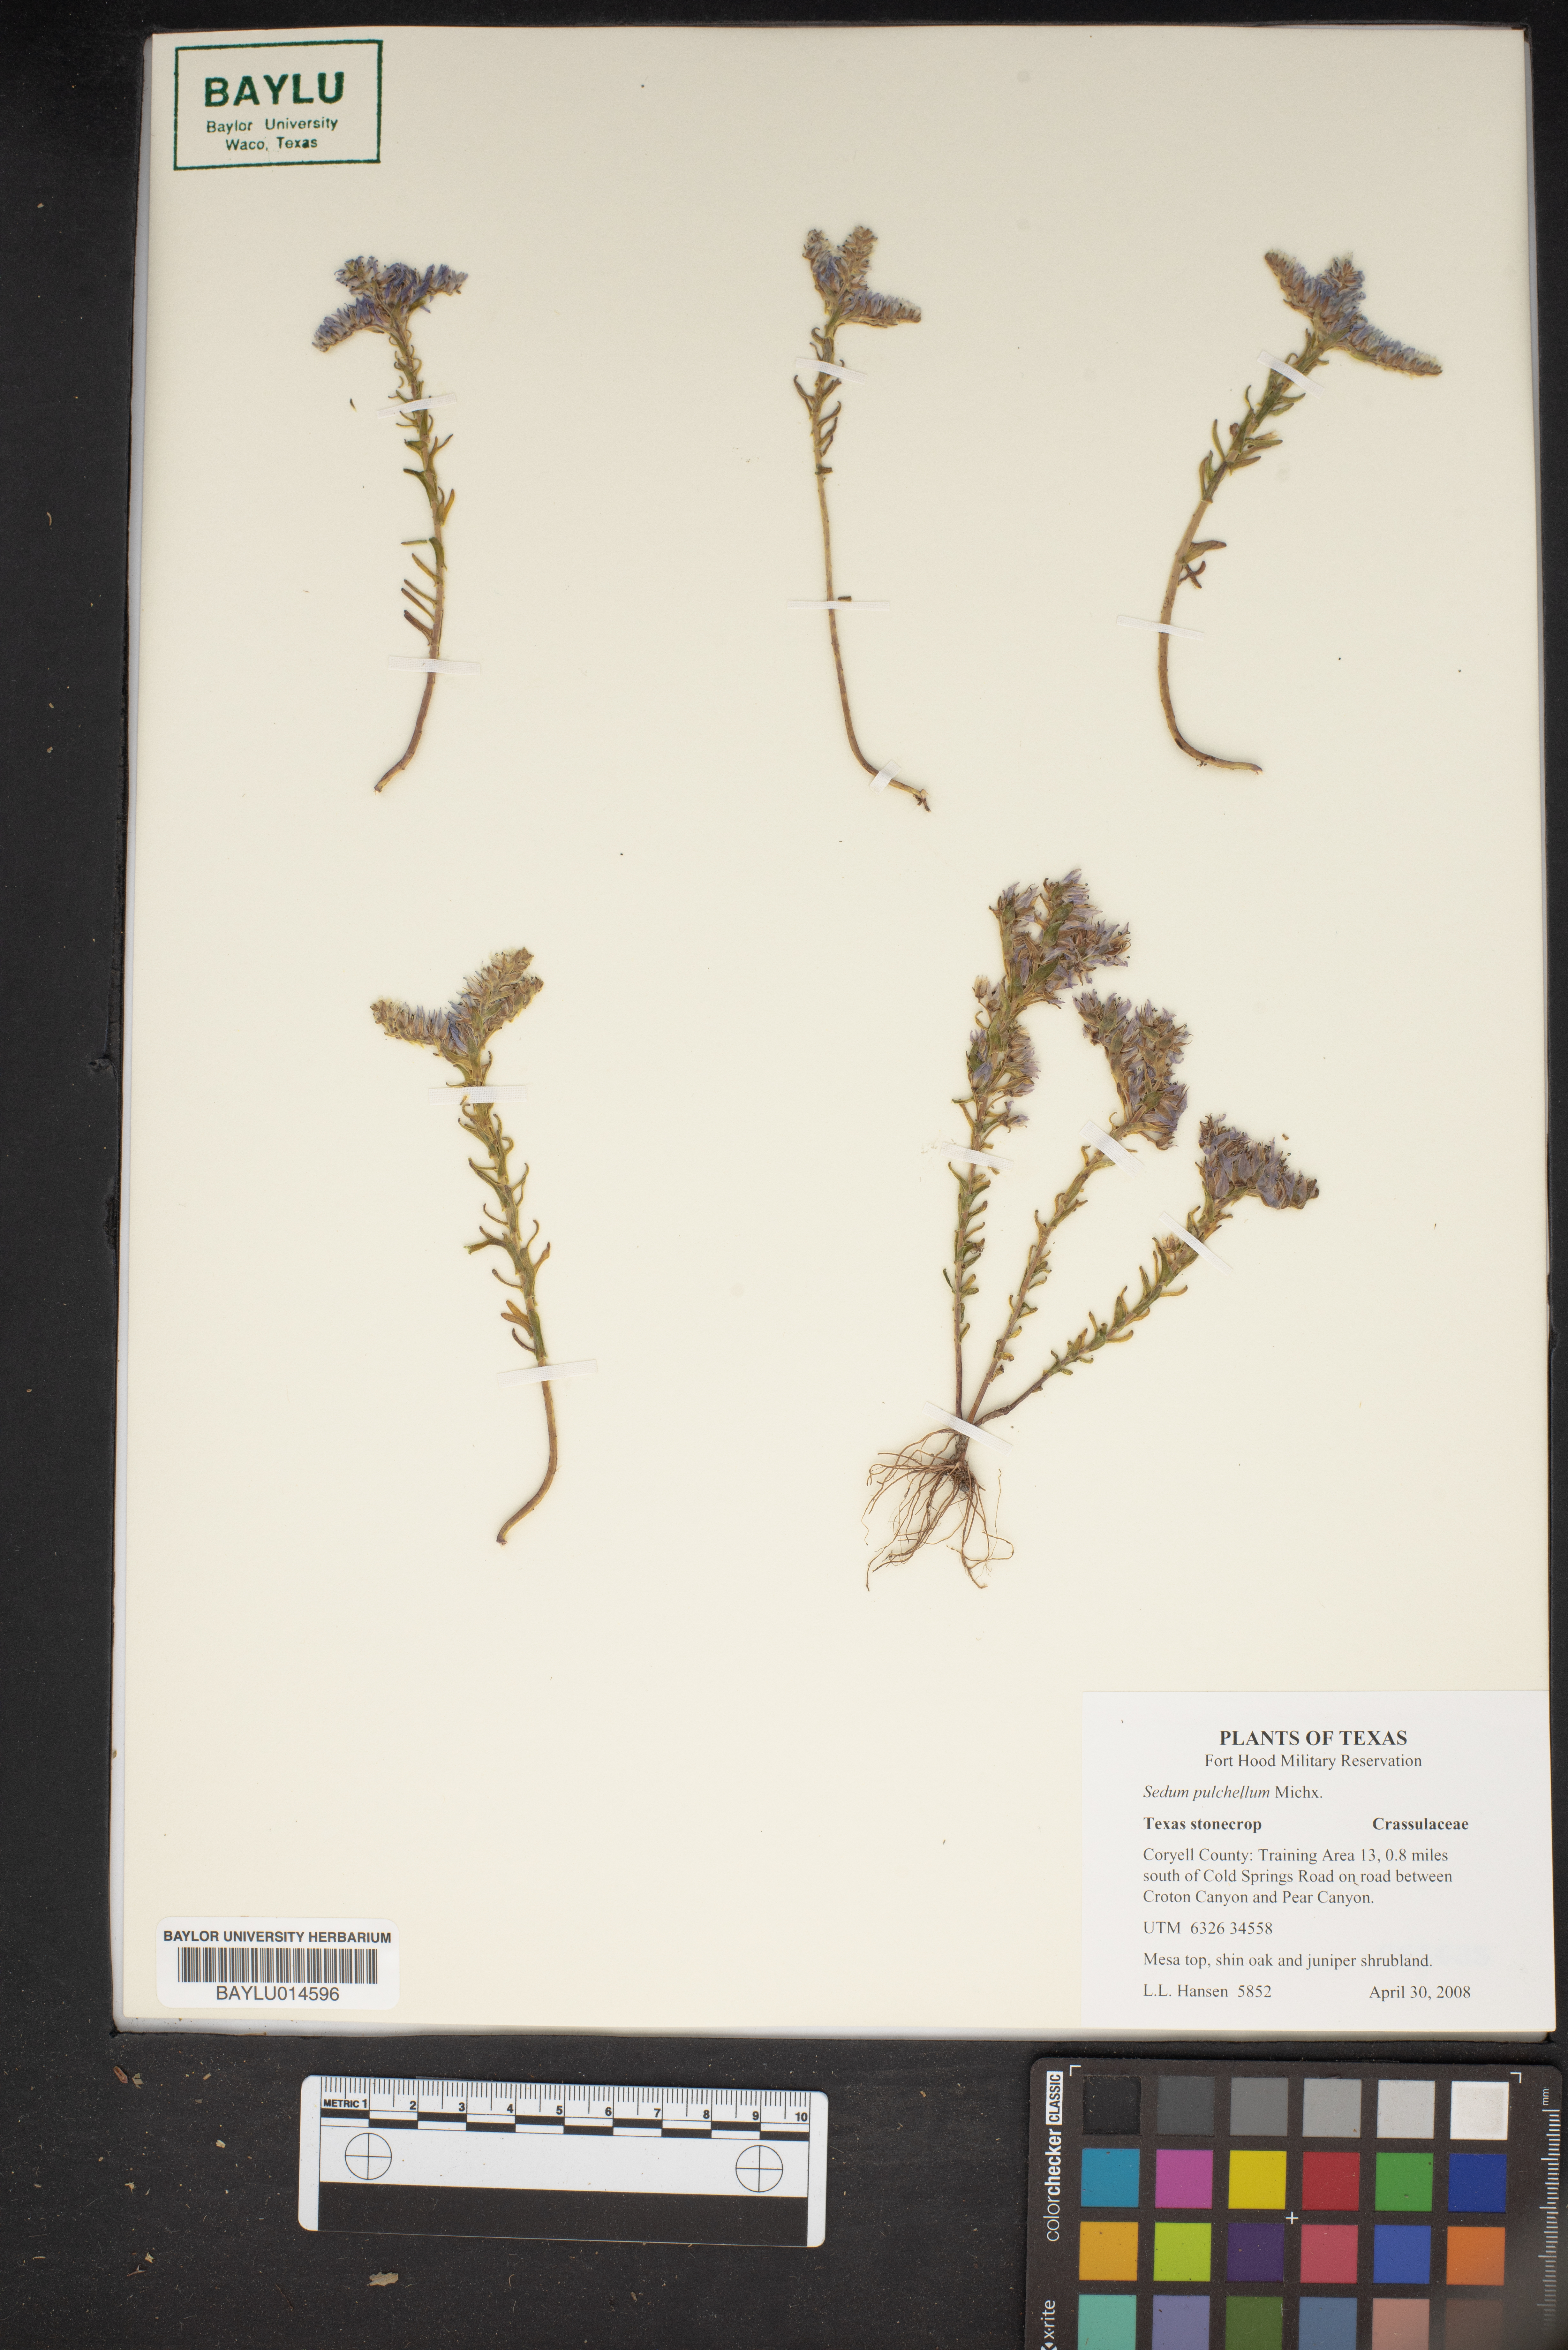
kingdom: Plantae
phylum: Tracheophyta
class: Magnoliopsida
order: Saxifragales
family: Crassulaceae
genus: Sedum
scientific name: Sedum pulchellum
